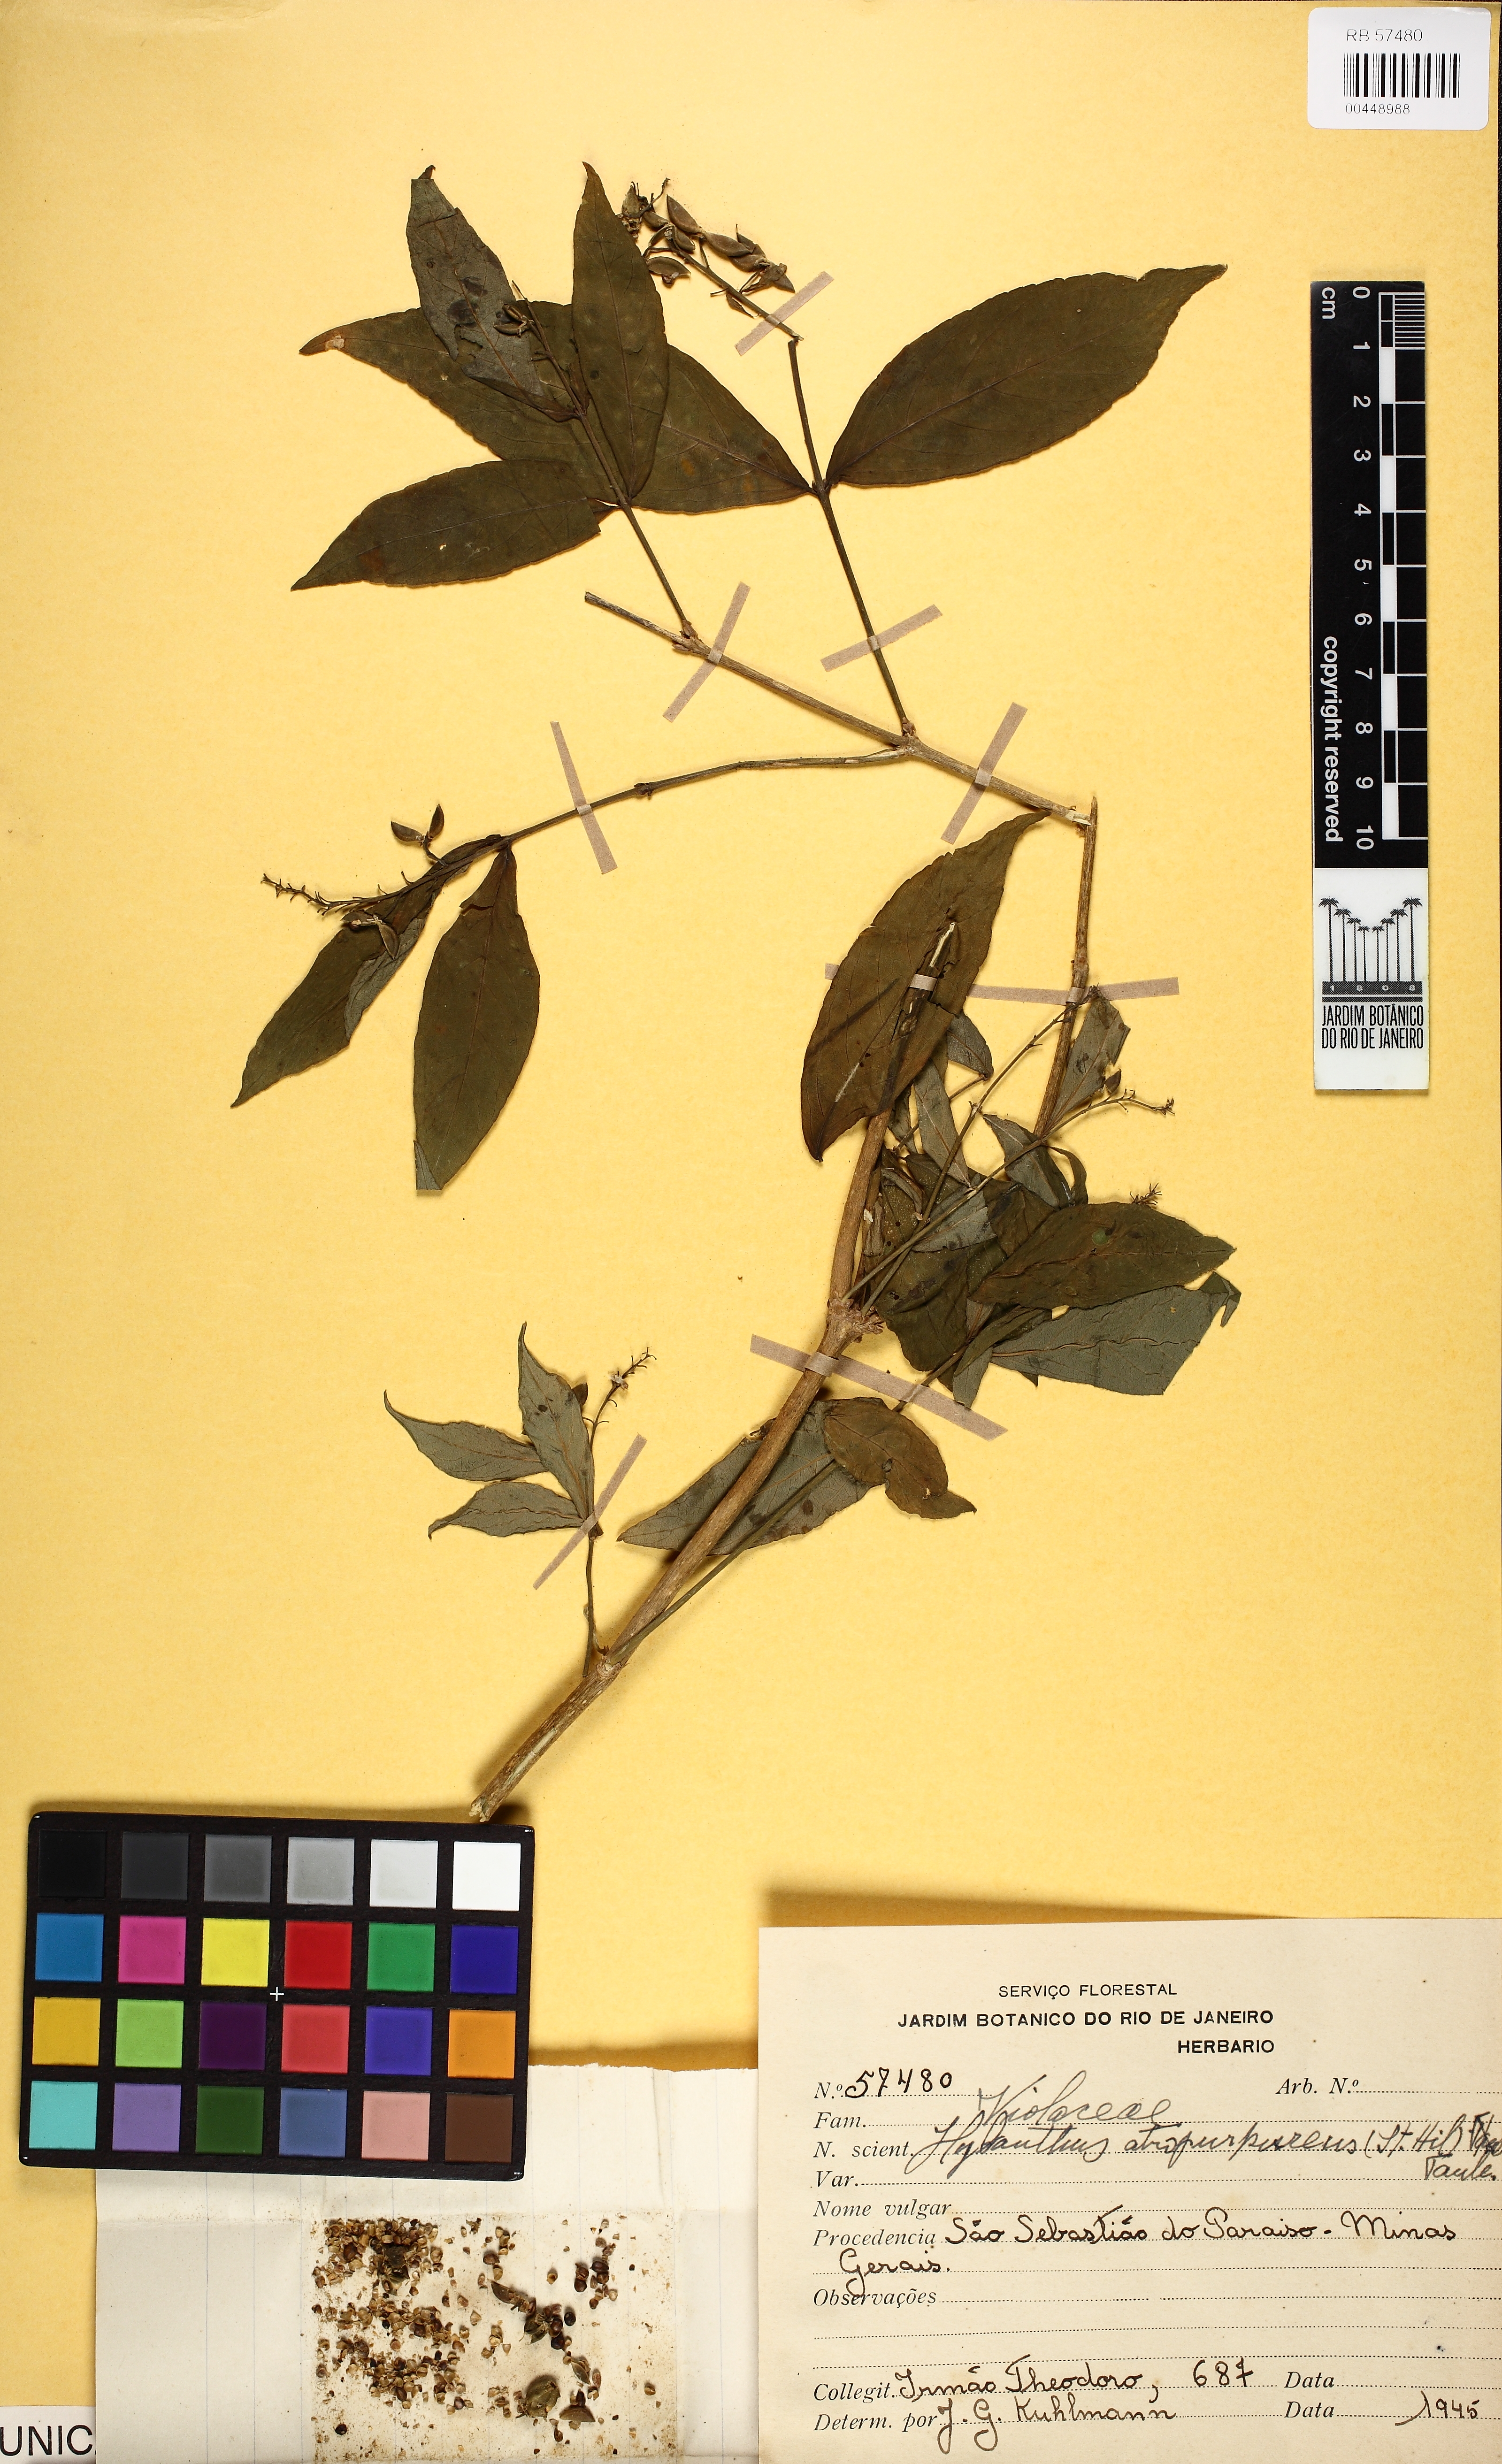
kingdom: Plantae
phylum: Tracheophyta
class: Magnoliopsida
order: Malpighiales
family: Violaceae
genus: Pombalia
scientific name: Pombalia atropurpurea
